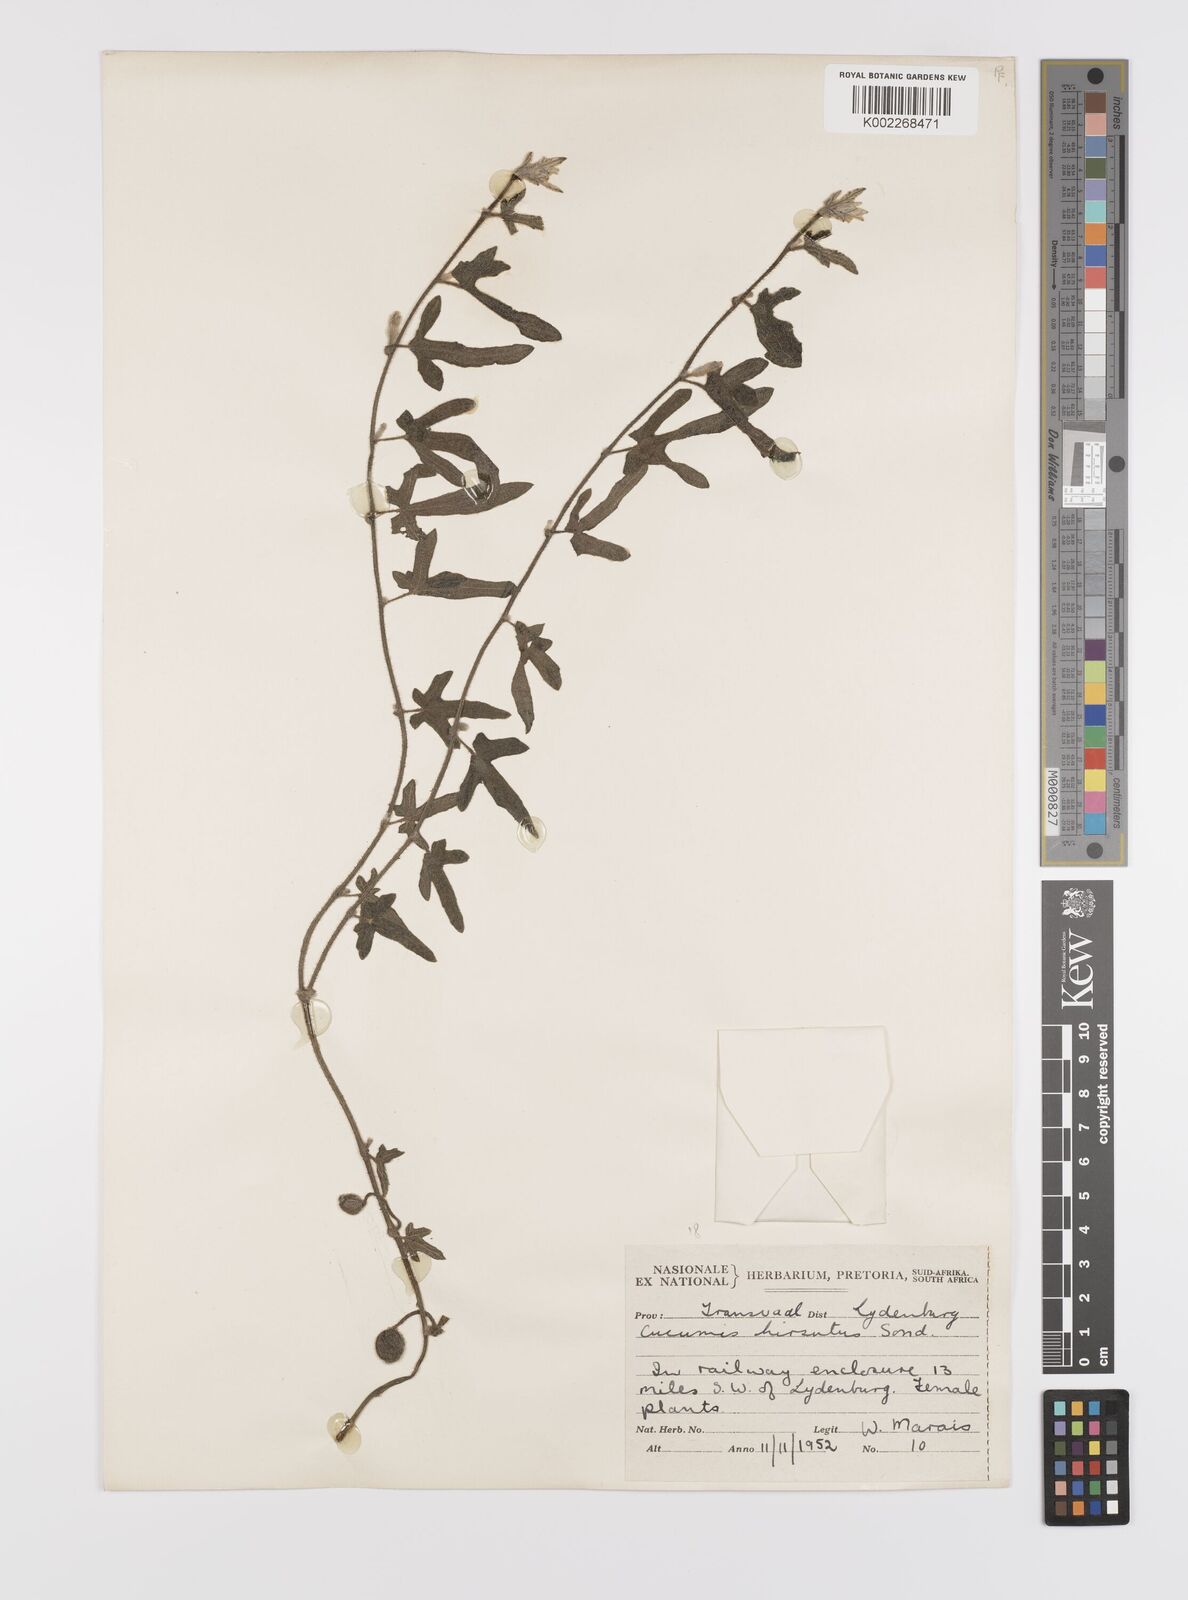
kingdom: Plantae
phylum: Tracheophyta
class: Magnoliopsida
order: Cucurbitales
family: Cucurbitaceae
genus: Cucumis
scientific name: Cucumis hirsutus
